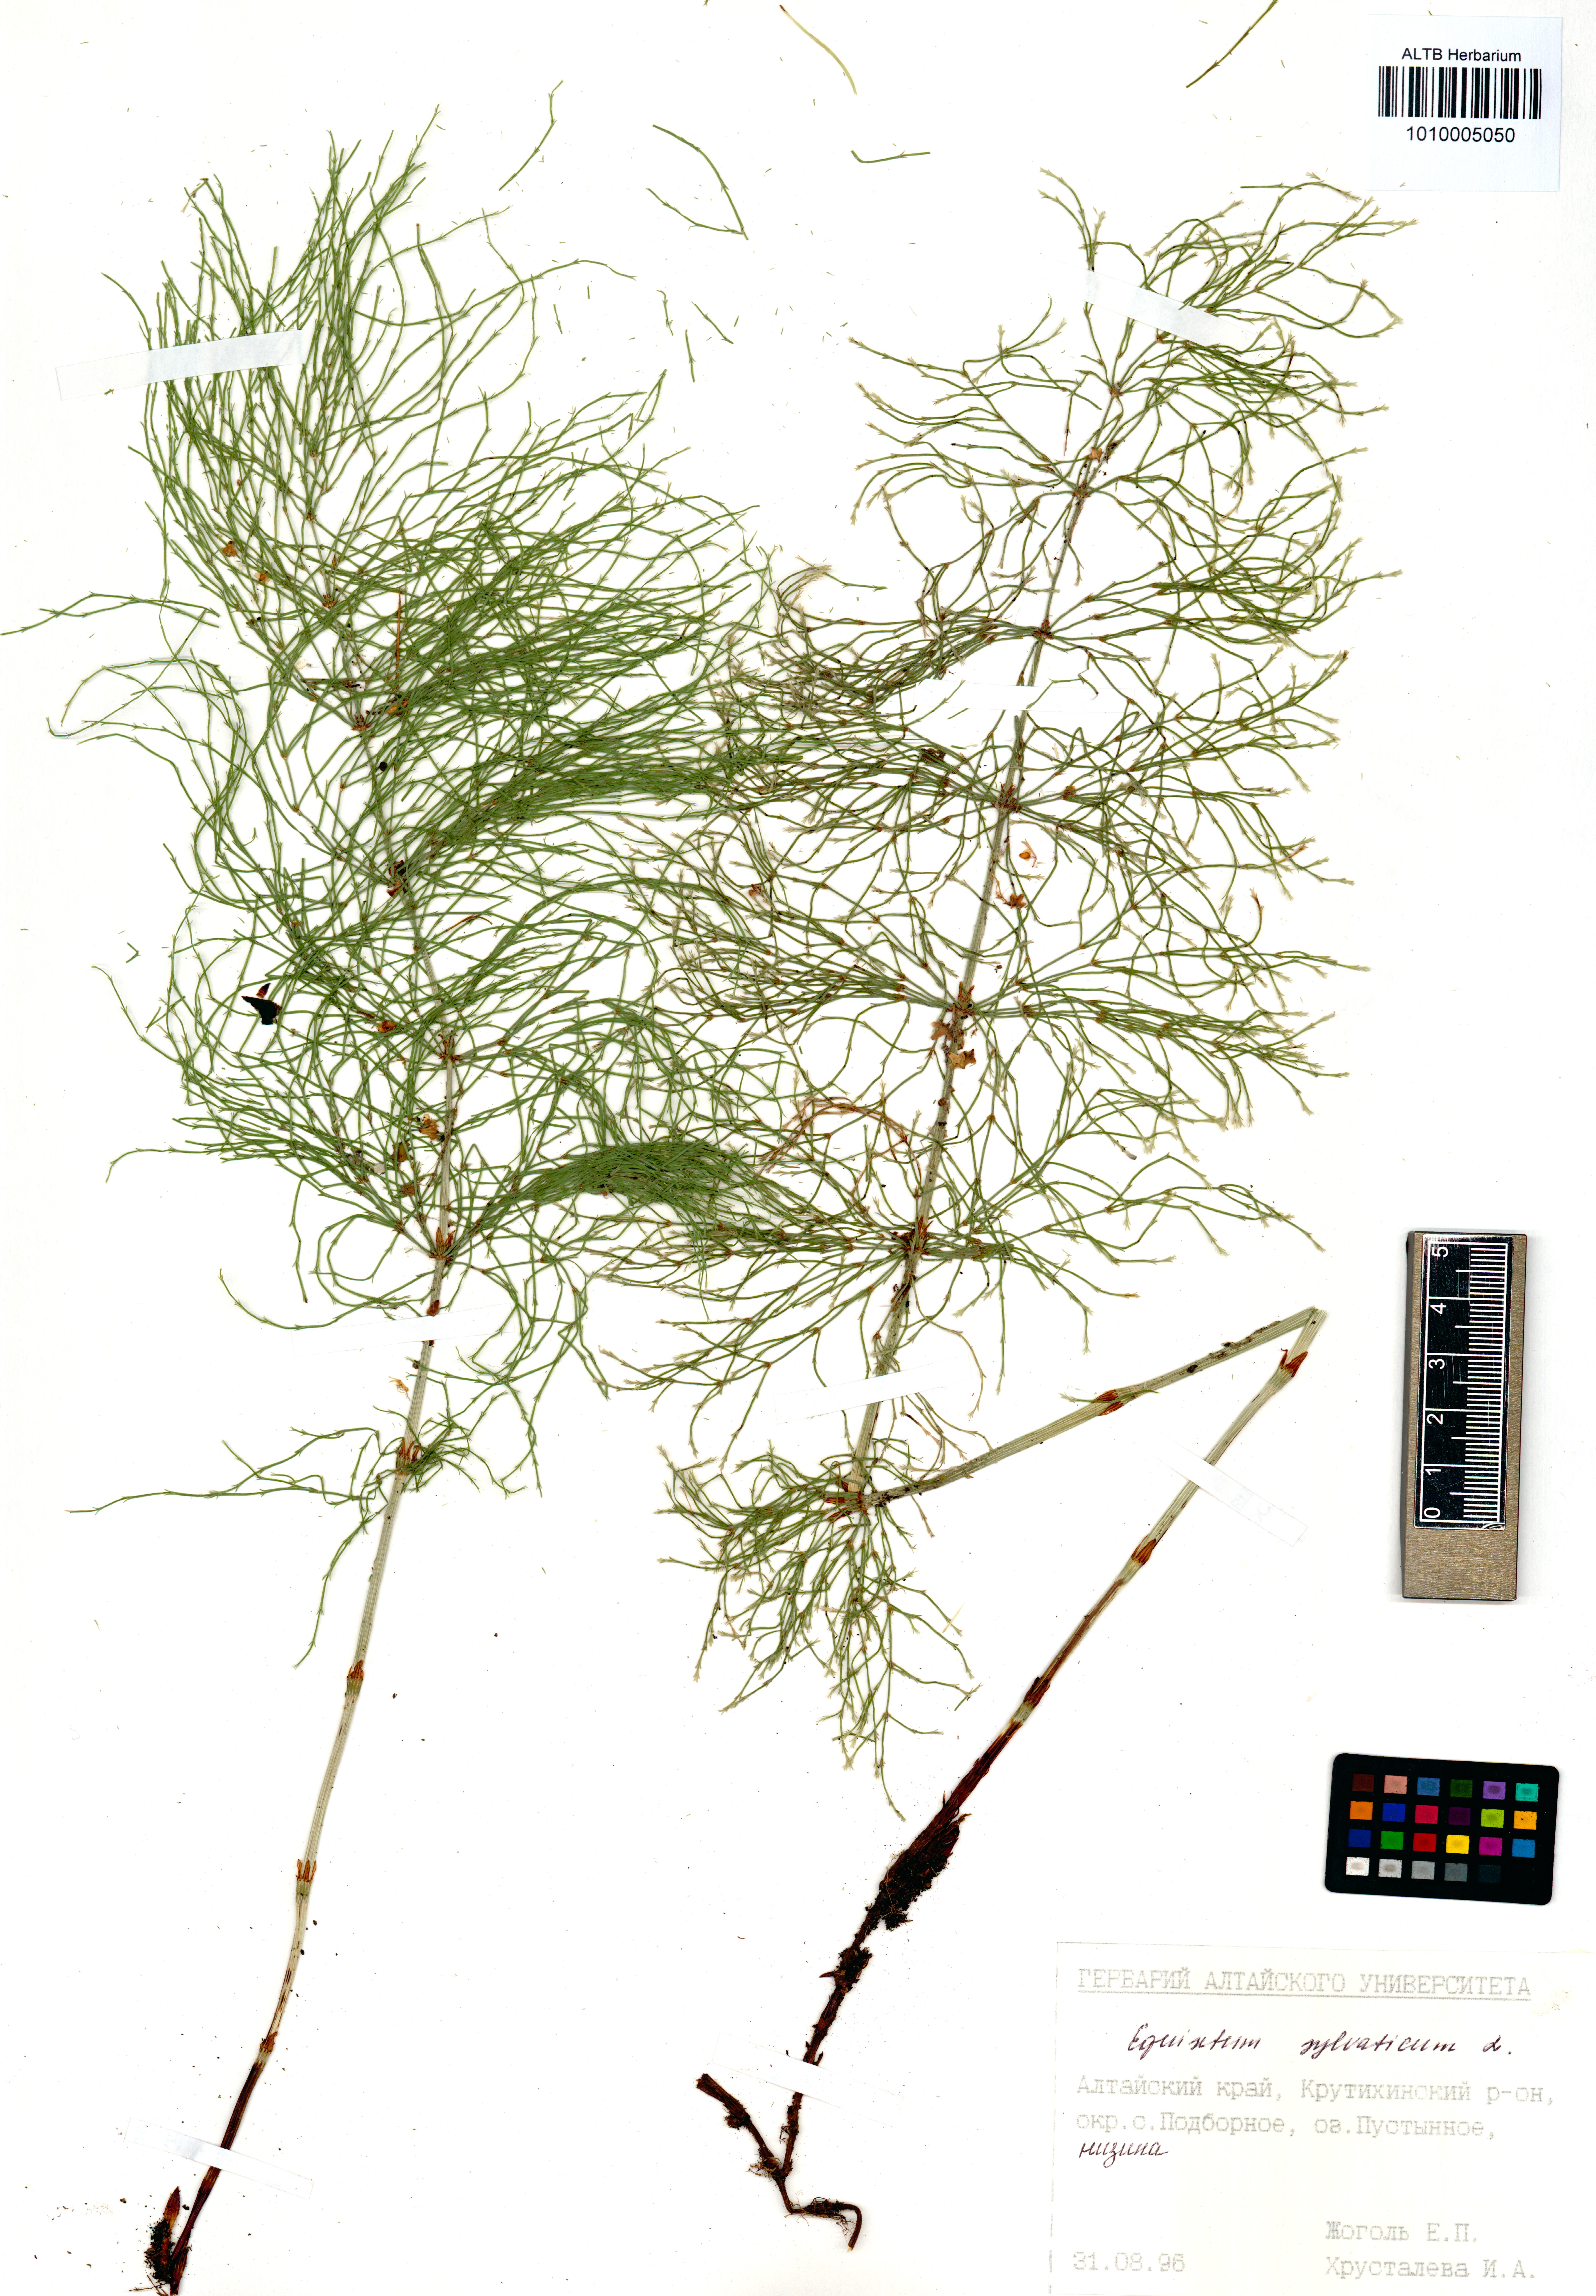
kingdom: Plantae
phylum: Tracheophyta
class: Polypodiopsida
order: Equisetales
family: Equisetaceae
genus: Equisetum
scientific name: Equisetum sylvaticum
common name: Wood horsetail
